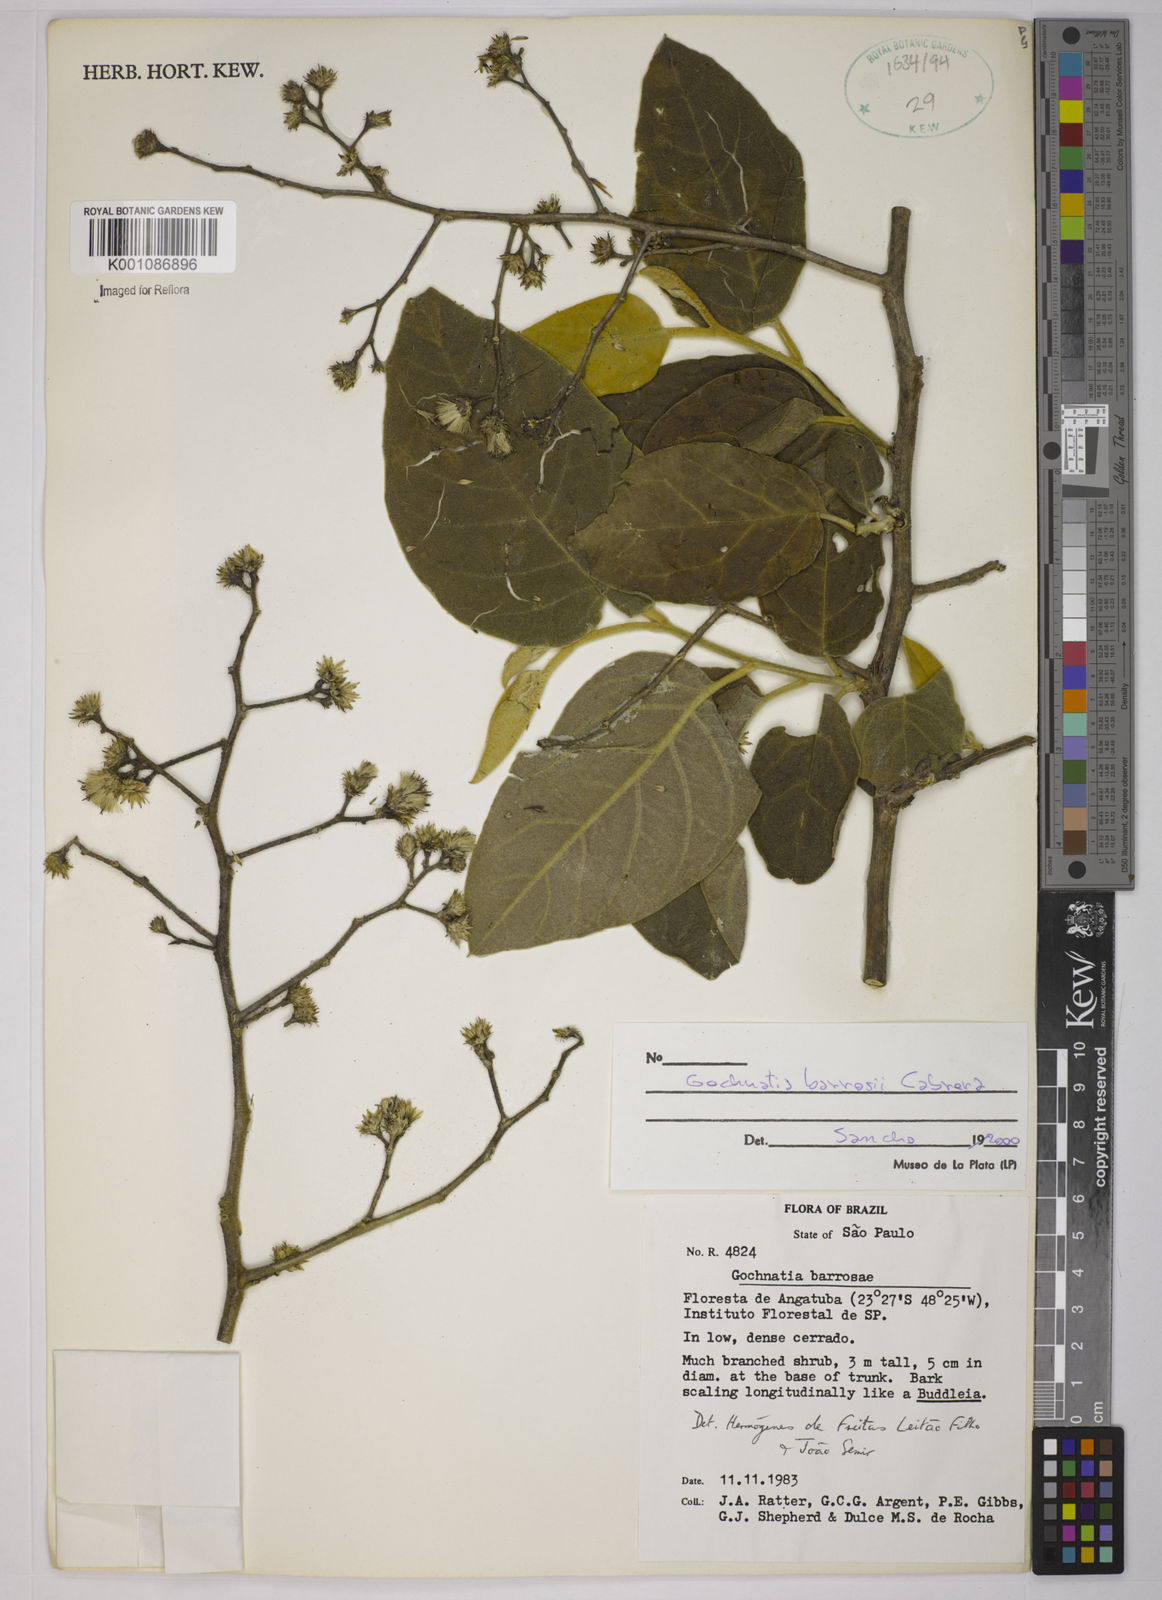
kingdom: Plantae
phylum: Tracheophyta
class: Magnoliopsida
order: Asterales
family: Asteraceae
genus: Moquiniastrum
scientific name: Moquiniastrum barrosoae
